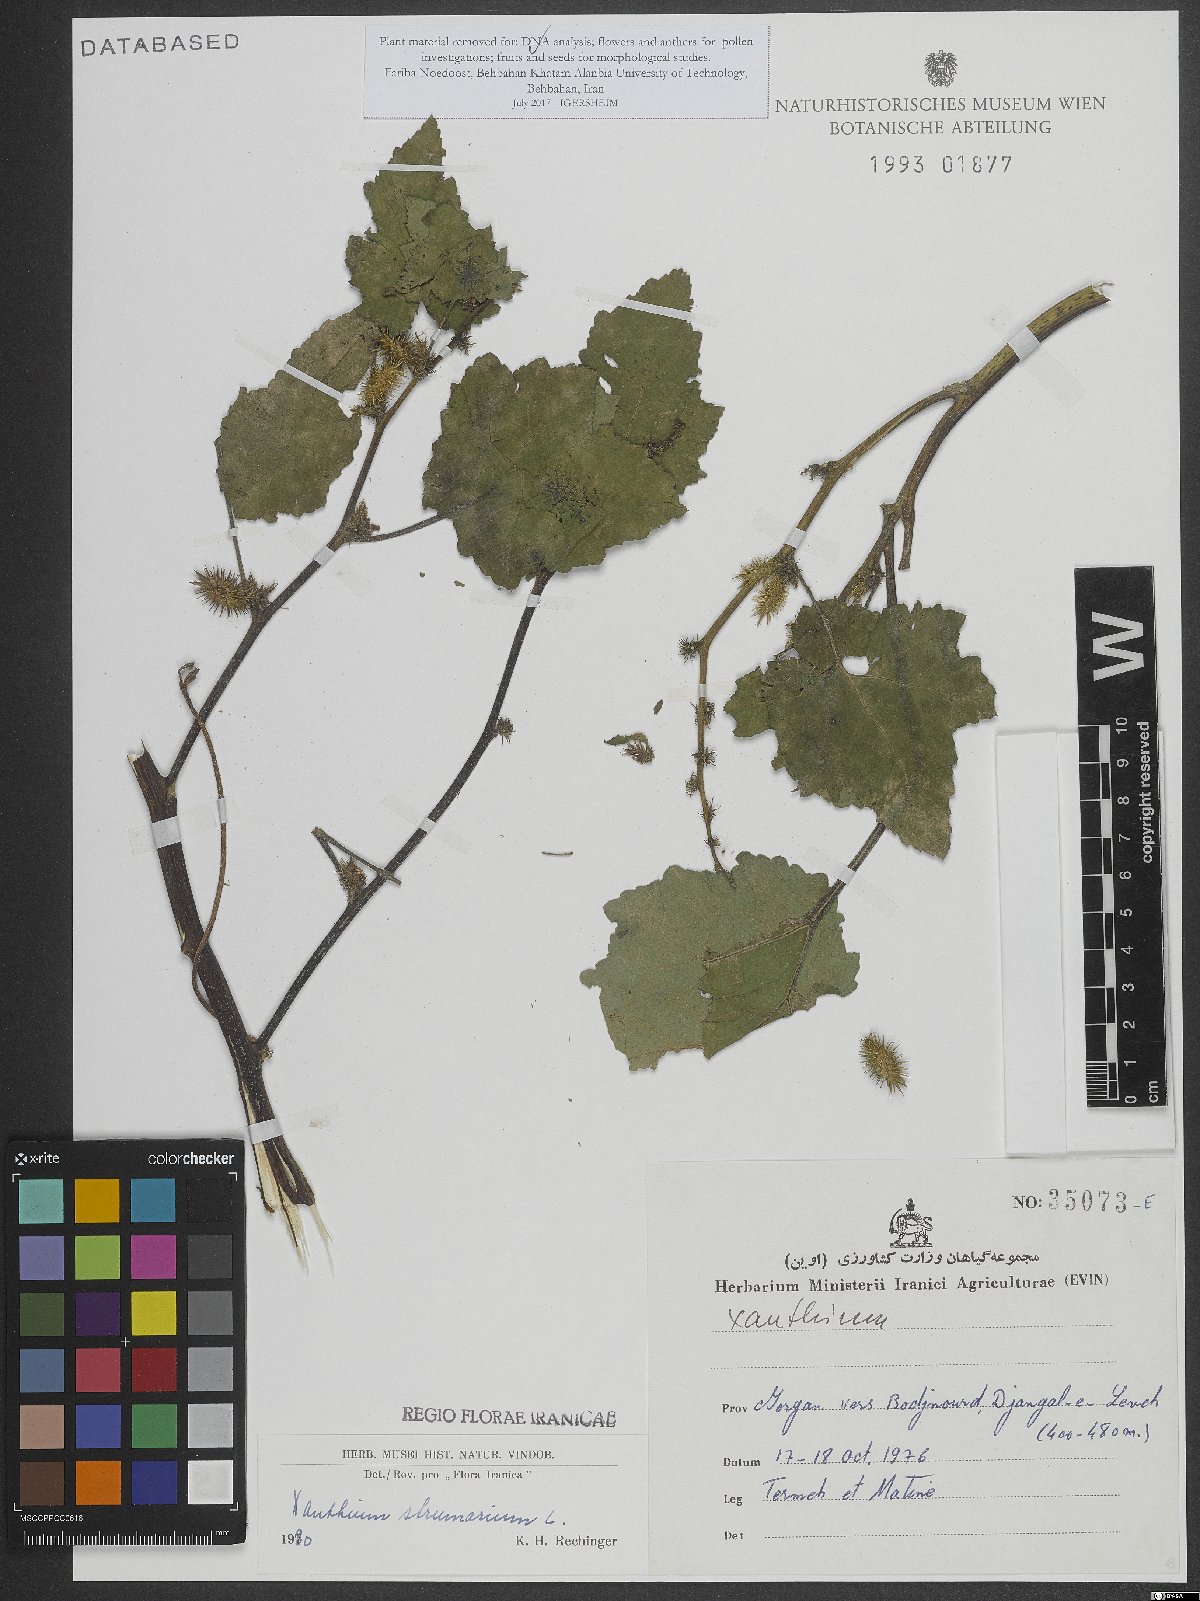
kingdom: Plantae
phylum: Tracheophyta
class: Magnoliopsida
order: Asterales
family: Asteraceae
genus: Xanthium
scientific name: Xanthium strumarium
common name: Rough cocklebur
